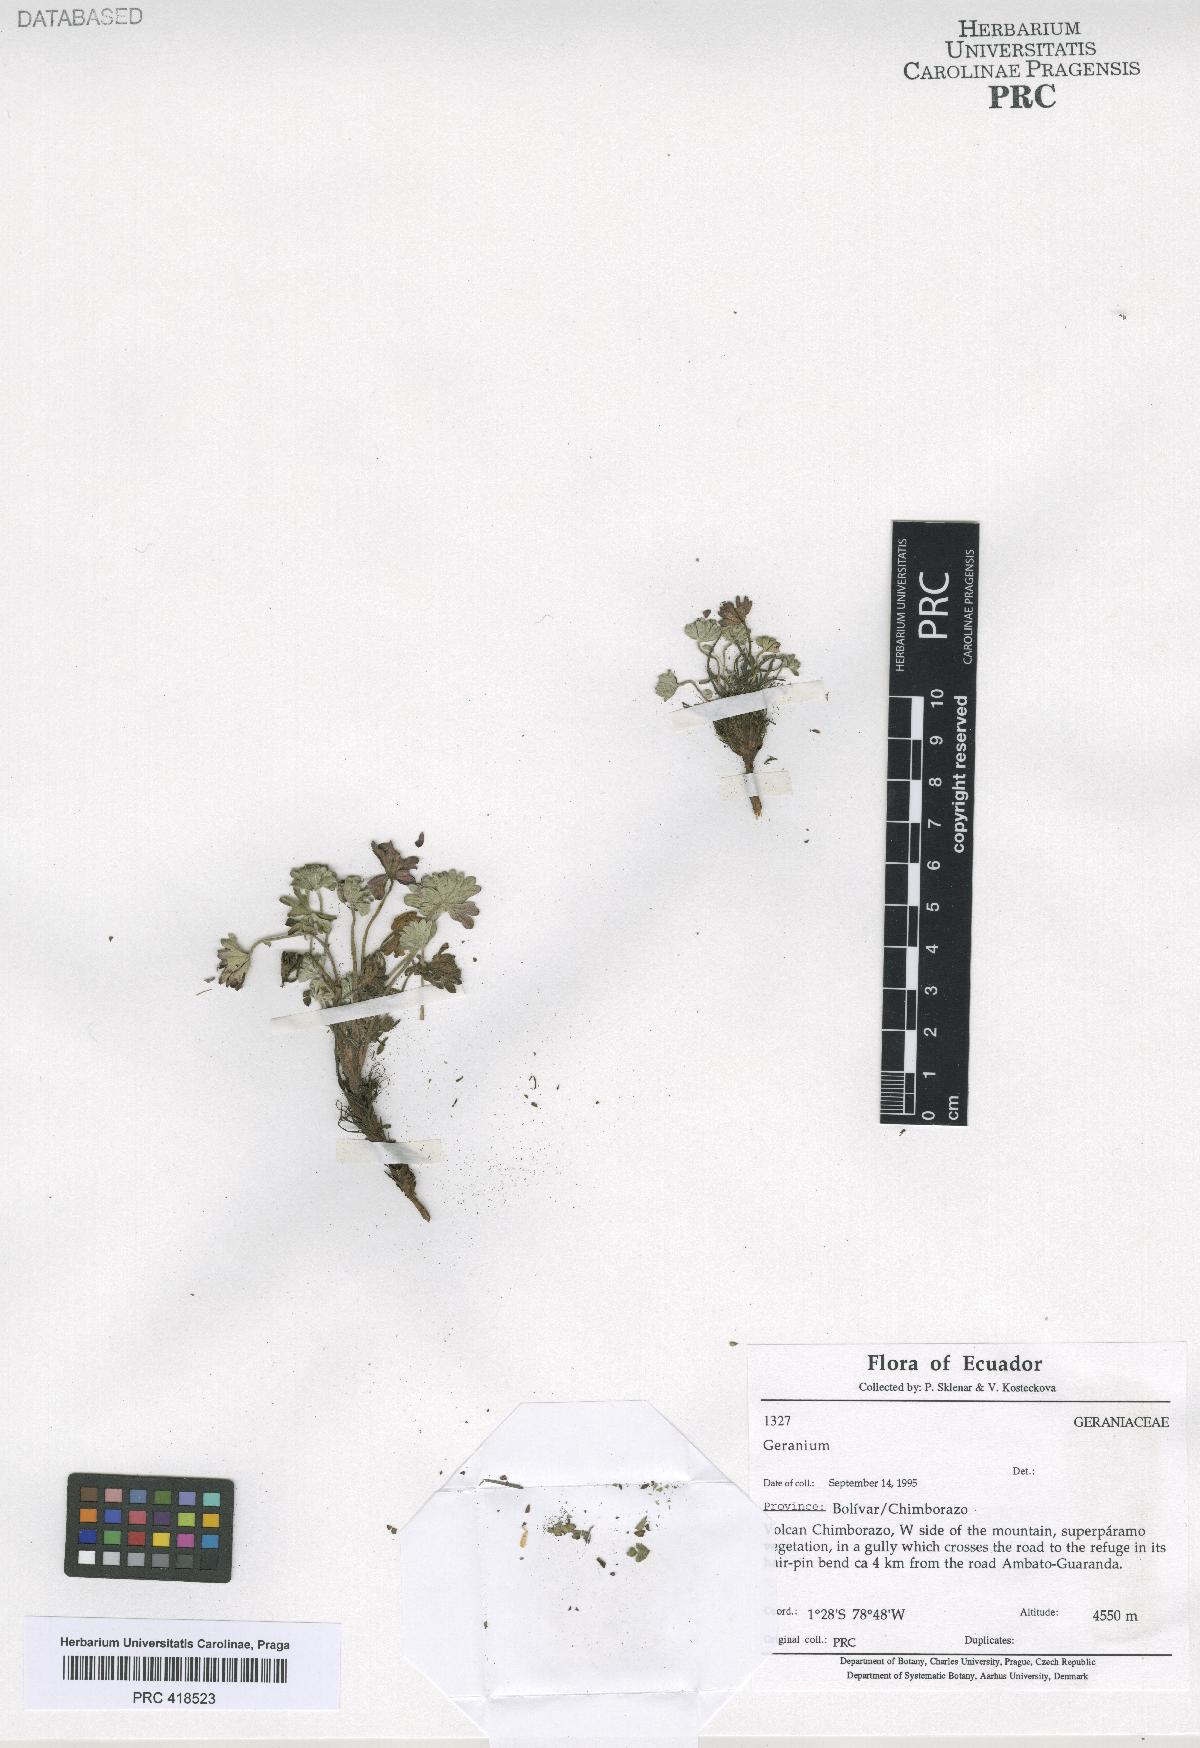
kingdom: Plantae
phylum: Tracheophyta
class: Magnoliopsida
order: Geraniales
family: Geraniaceae
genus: Geranium
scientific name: Geranium
